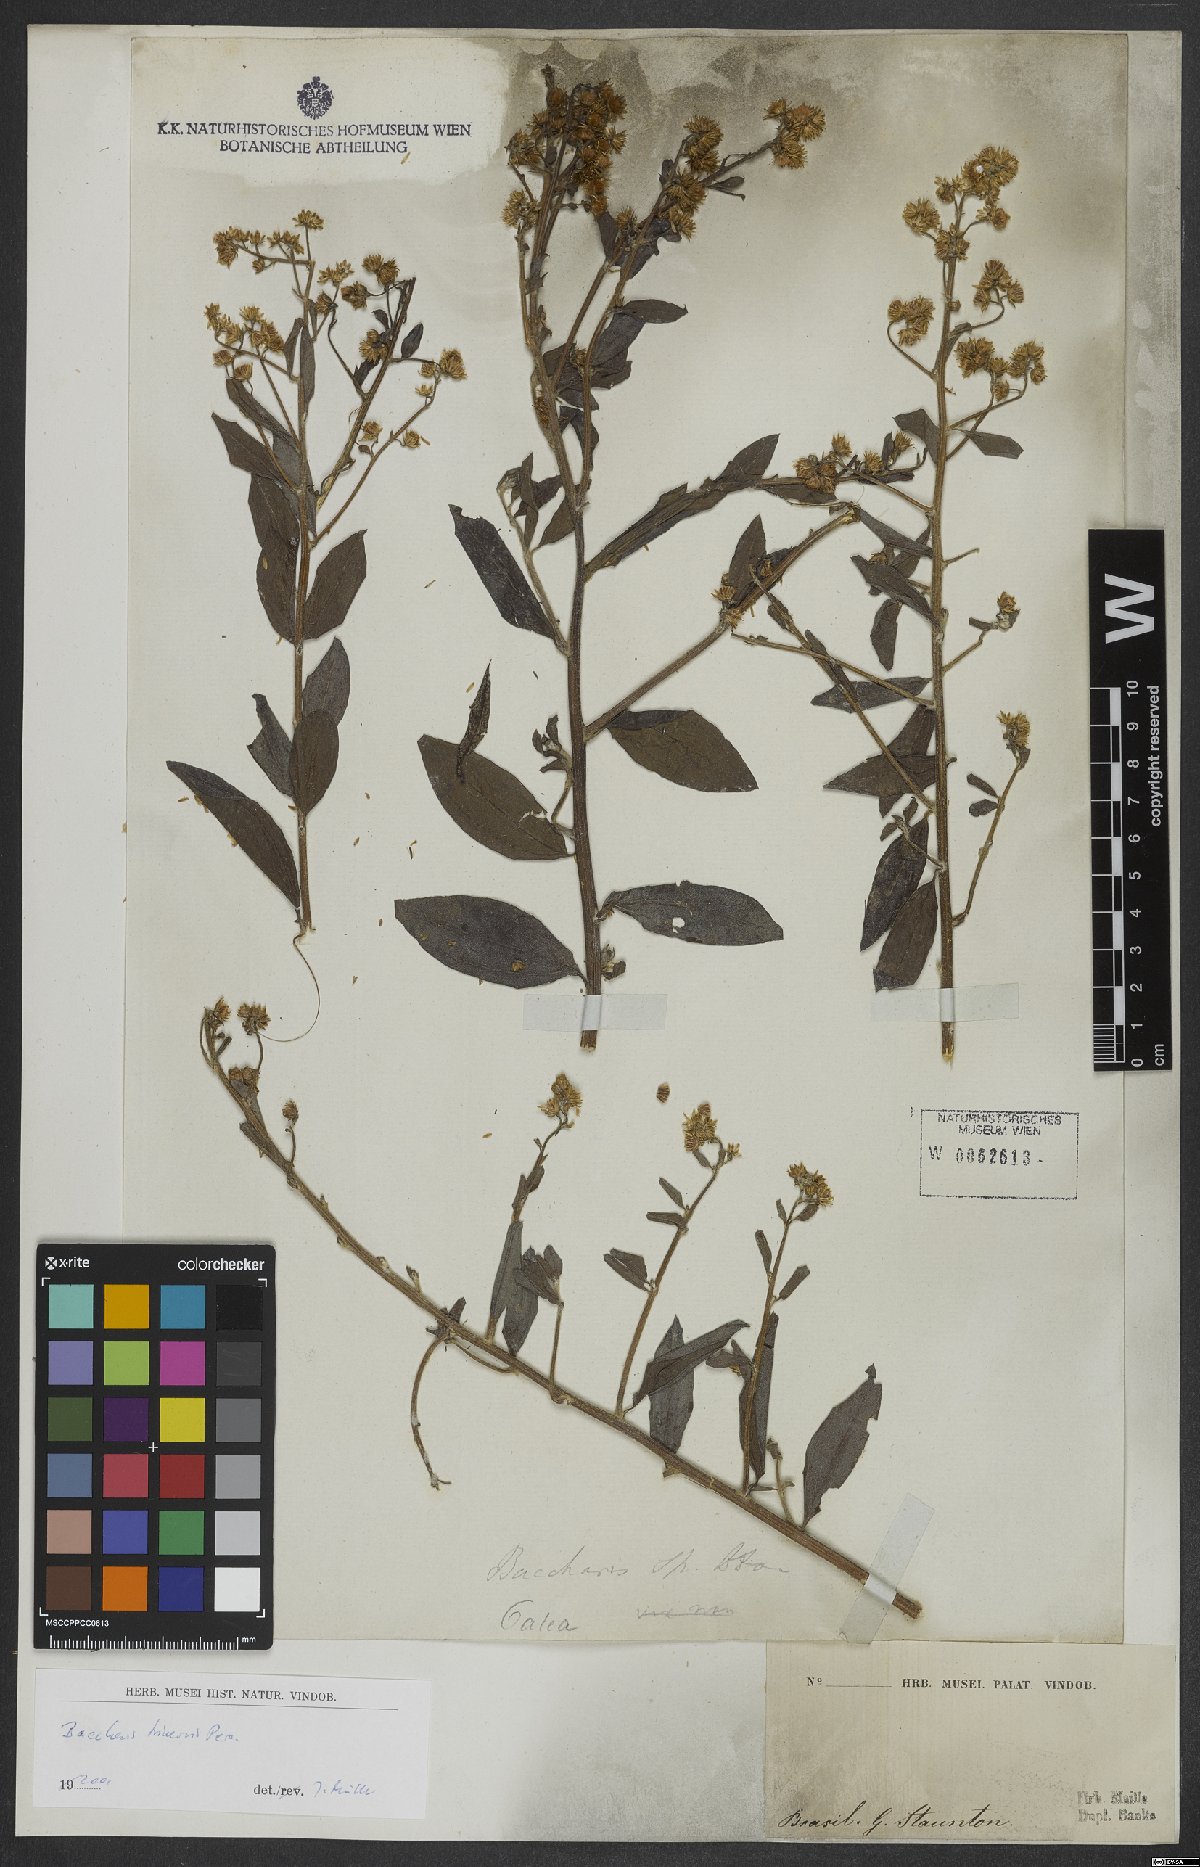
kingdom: Plantae
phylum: Tracheophyta
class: Magnoliopsida
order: Asterales
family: Asteraceae
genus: Baccharis
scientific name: Baccharis trinervis
